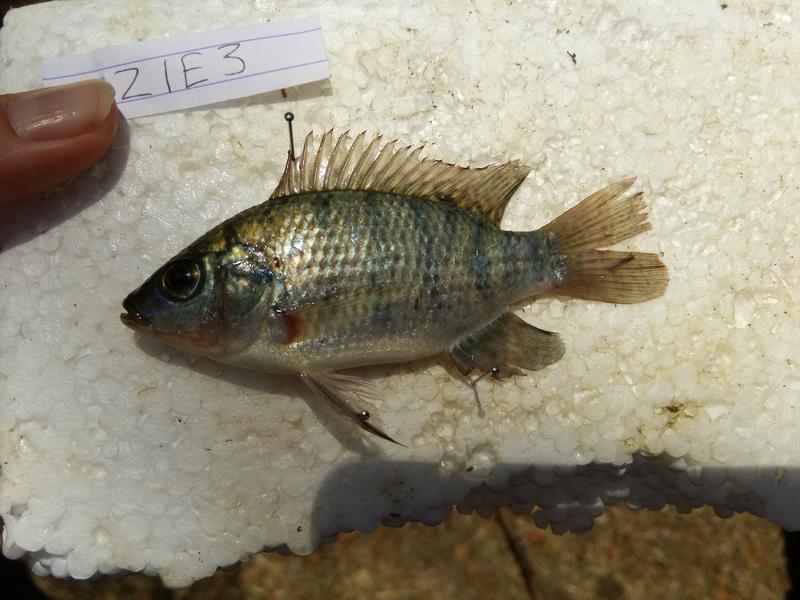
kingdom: Animalia
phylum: Chordata
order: Perciformes
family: Cichlidae
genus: Oreochromis
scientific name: Oreochromis urolepis
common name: Wami tilapia
